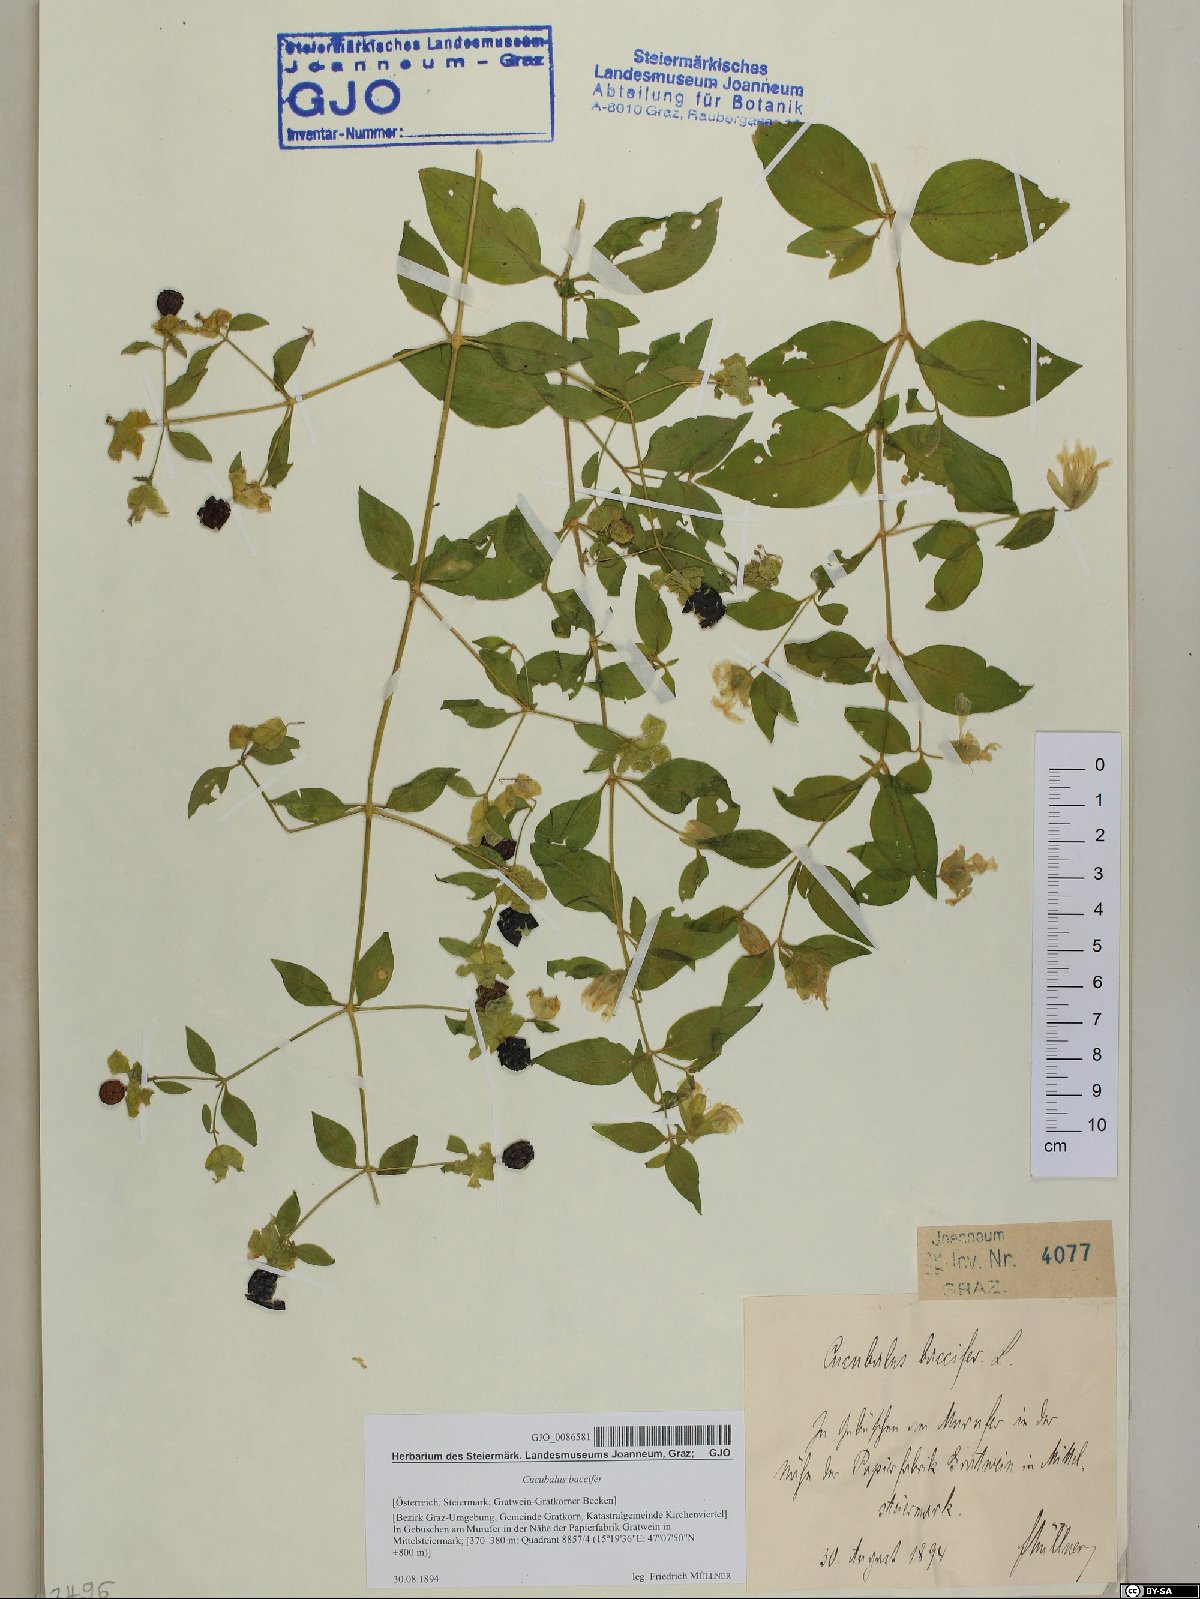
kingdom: Plantae
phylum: Tracheophyta
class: Magnoliopsida
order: Caryophyllales
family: Caryophyllaceae
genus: Silene
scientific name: Silene baccifera
